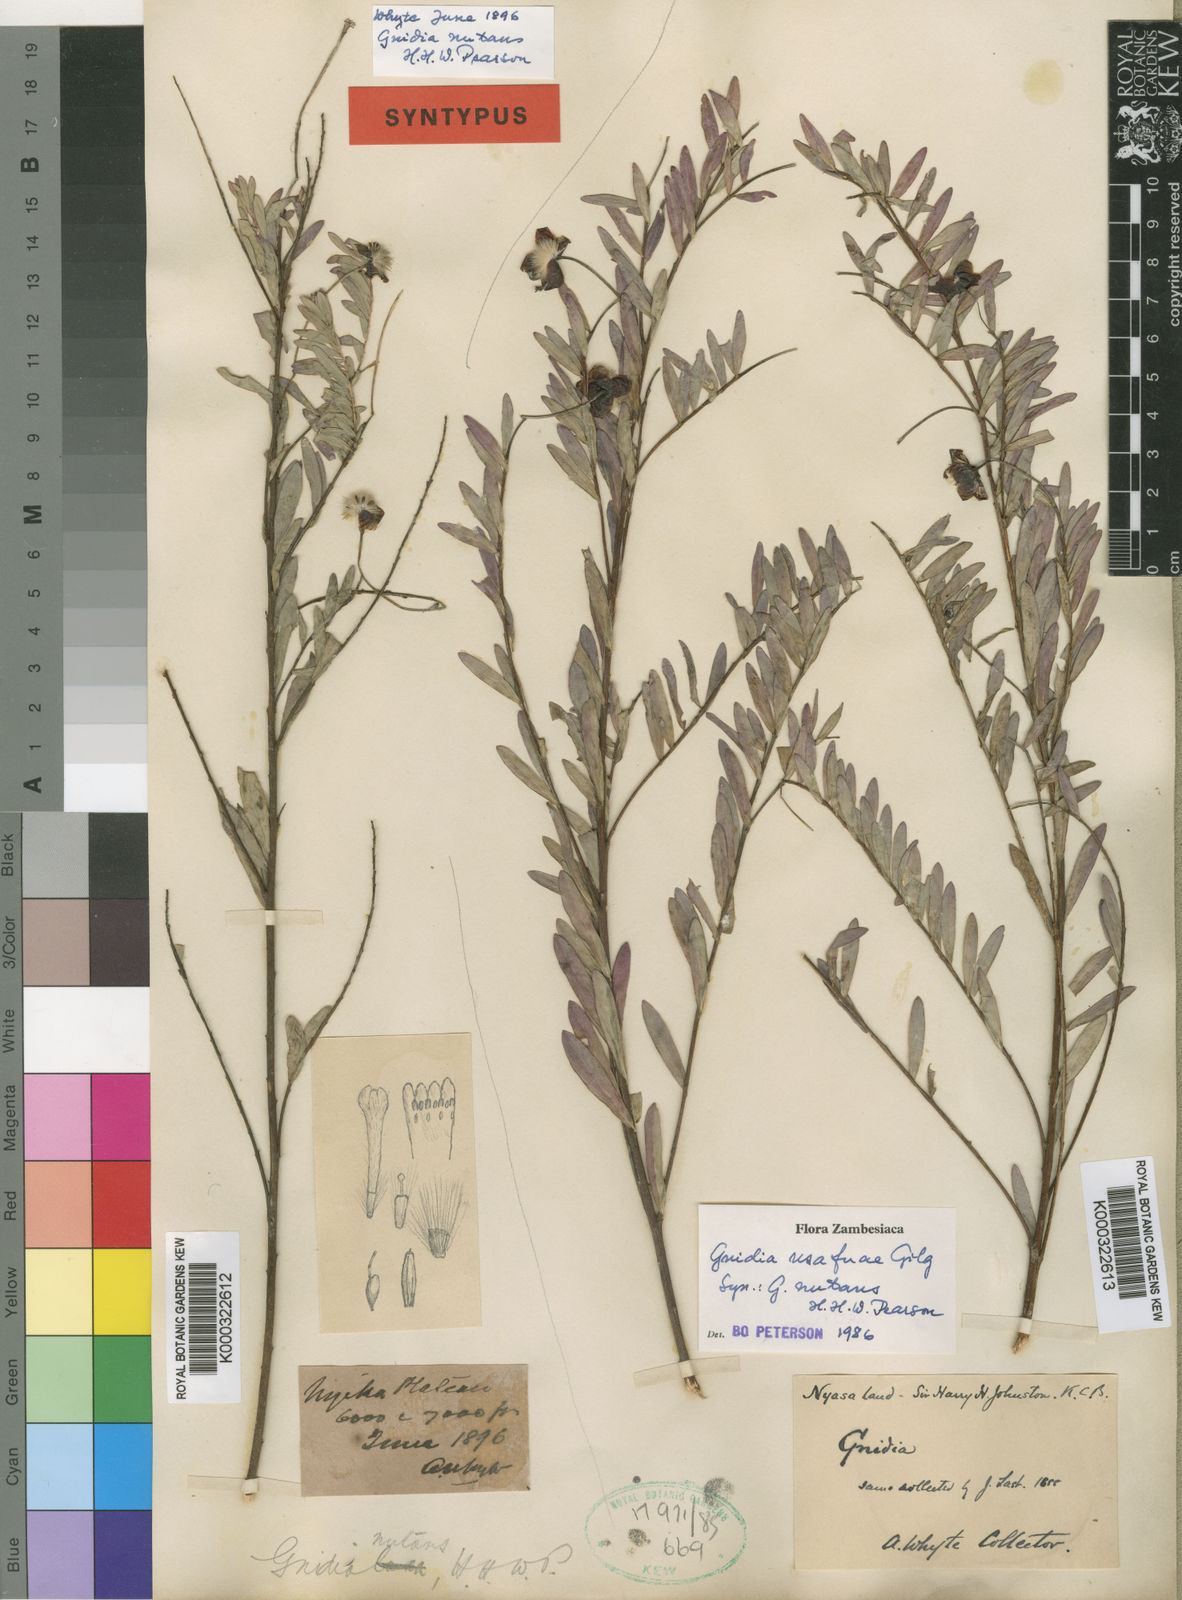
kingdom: Plantae
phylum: Tracheophyta
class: Magnoliopsida
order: Malvales
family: Thymelaeaceae
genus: Gnidia
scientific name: Gnidia usafuae
